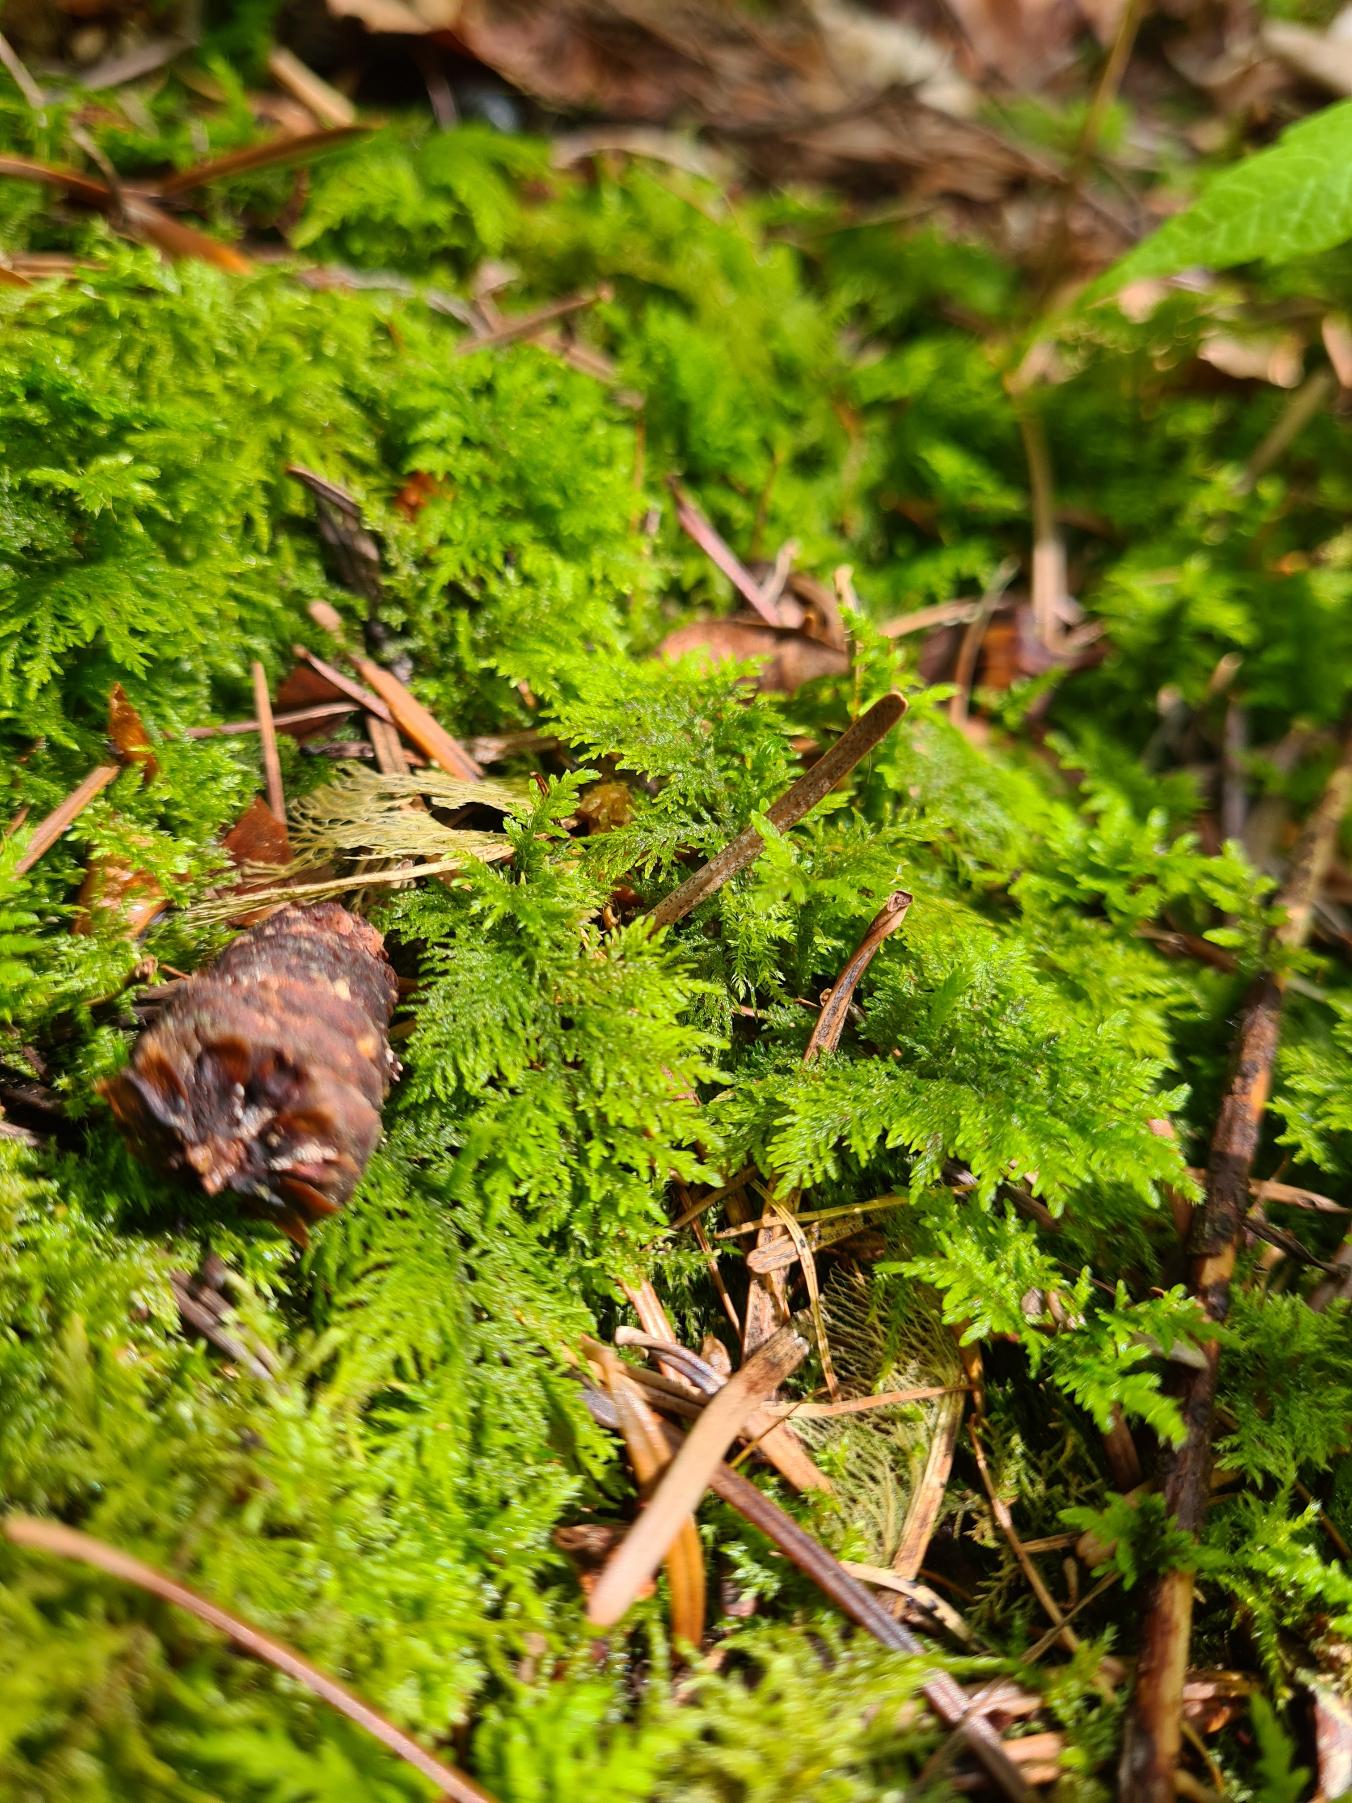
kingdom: Plantae
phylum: Bryophyta
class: Bryopsida
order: Hypnales
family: Thuidiaceae
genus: Thuidium
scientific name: Thuidium tamariscinum
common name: Pryd-bregnemos
